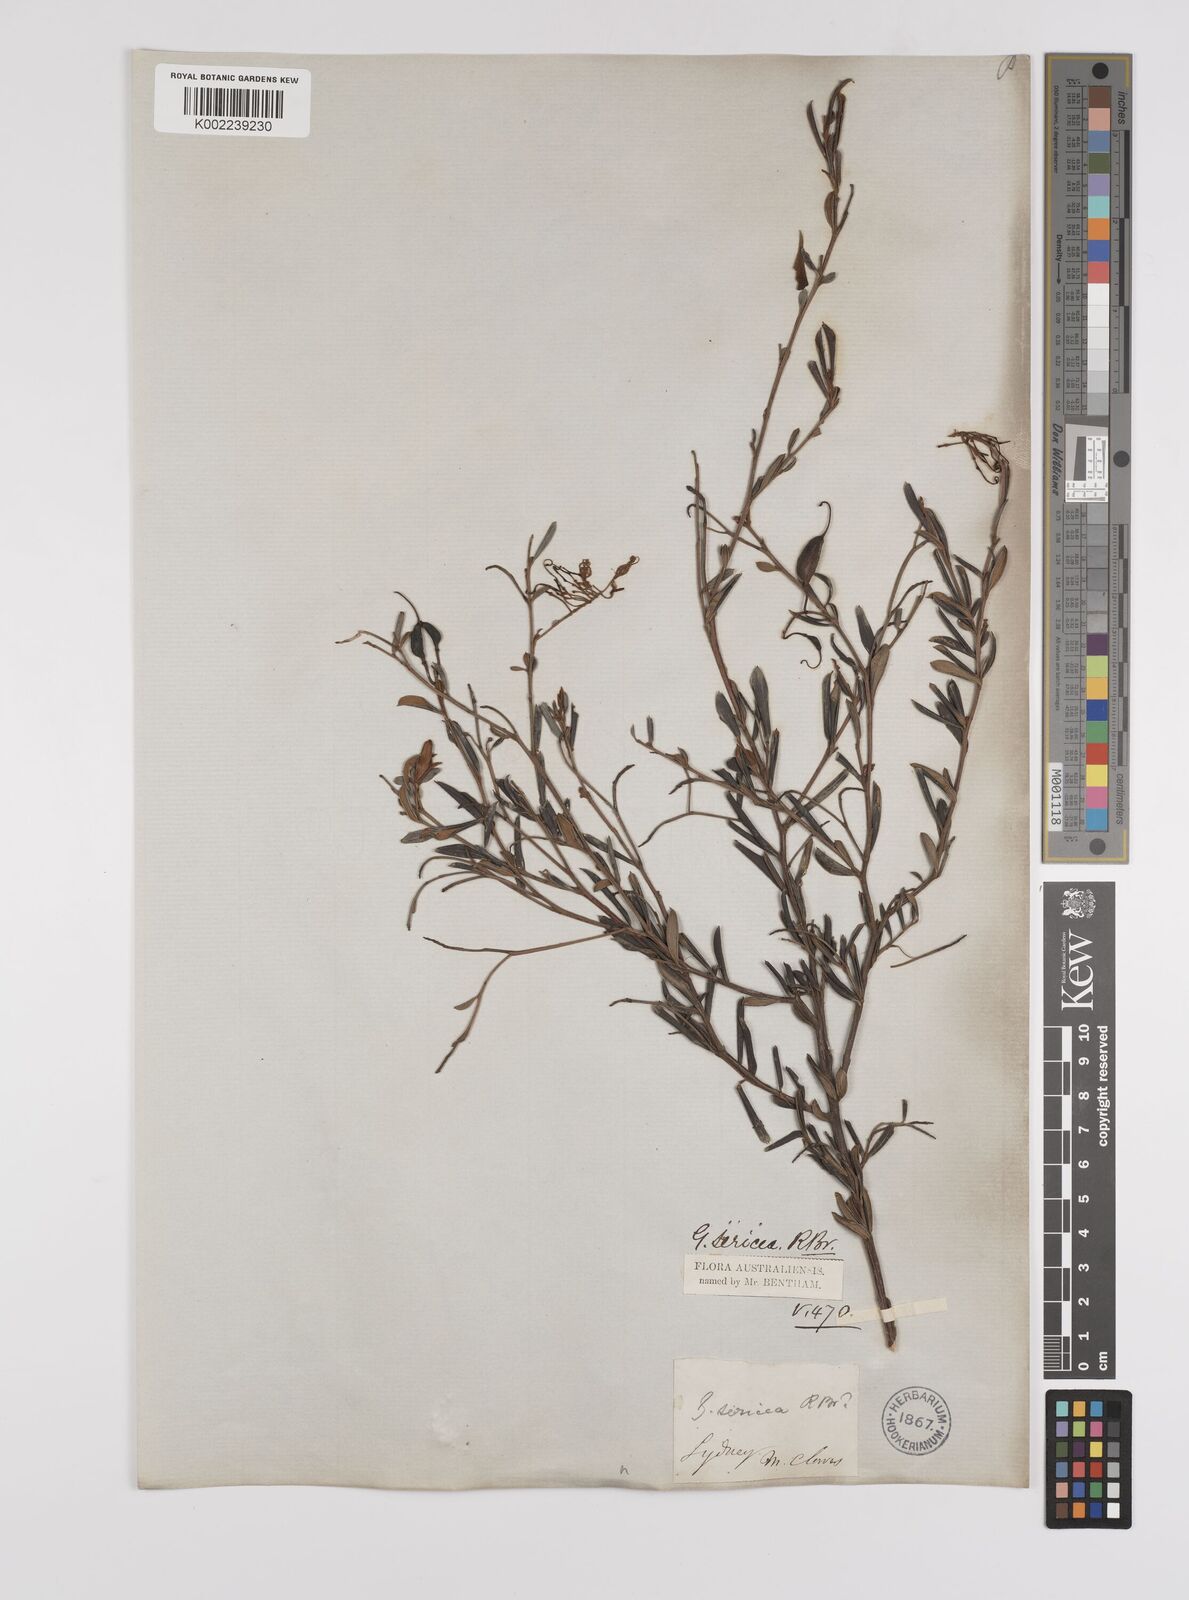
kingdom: Plantae
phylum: Tracheophyta
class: Magnoliopsida
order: Proteales
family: Proteaceae
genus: Grevillea
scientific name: Grevillea sericea
